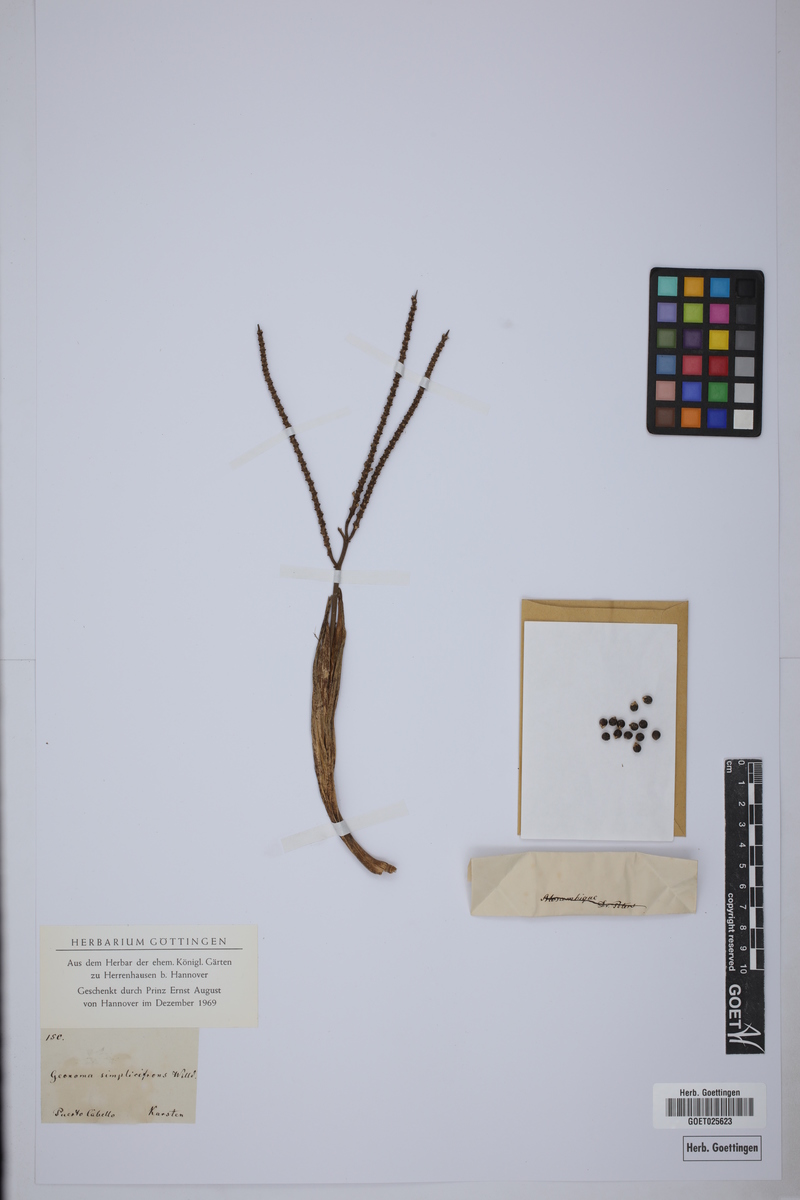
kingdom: Plantae
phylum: Tracheophyta
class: Liliopsida
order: Arecales
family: Arecaceae
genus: Geonoma
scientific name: Geonoma simplicifrons
